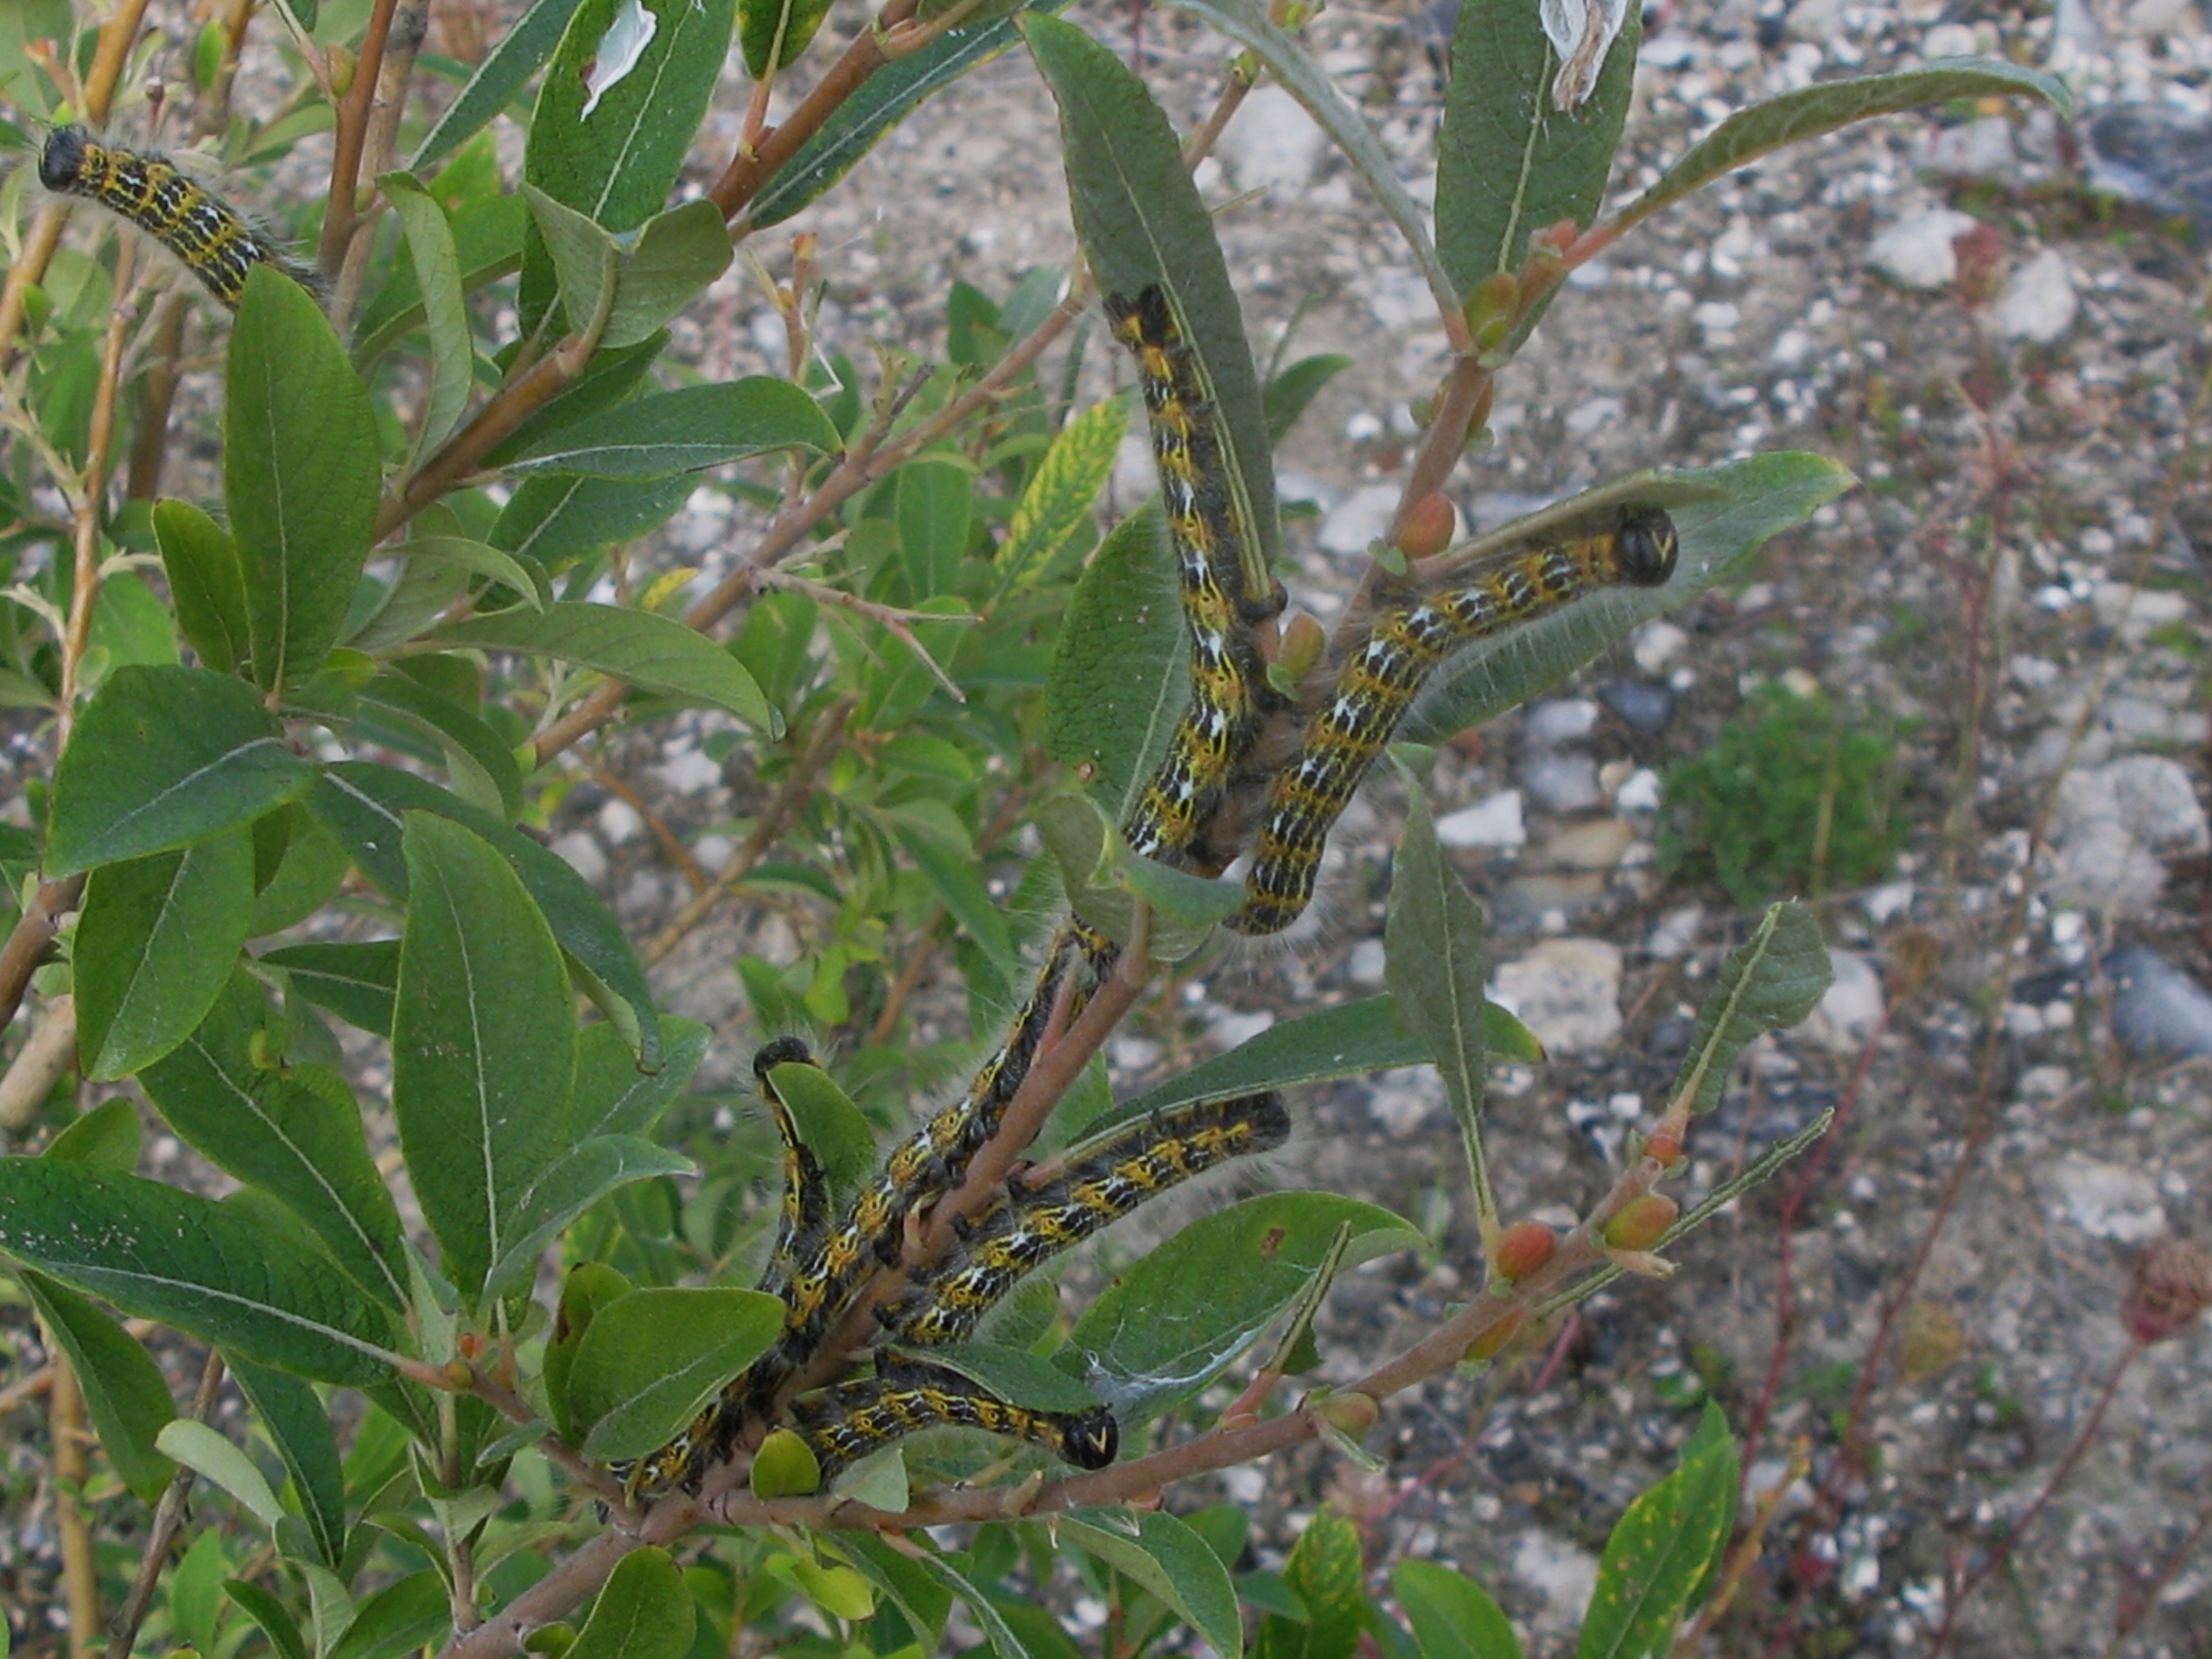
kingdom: Animalia
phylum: Arthropoda
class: Insecta
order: Lepidoptera
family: Notodontidae
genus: Phalera
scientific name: Phalera bucephala
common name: Måneplet
